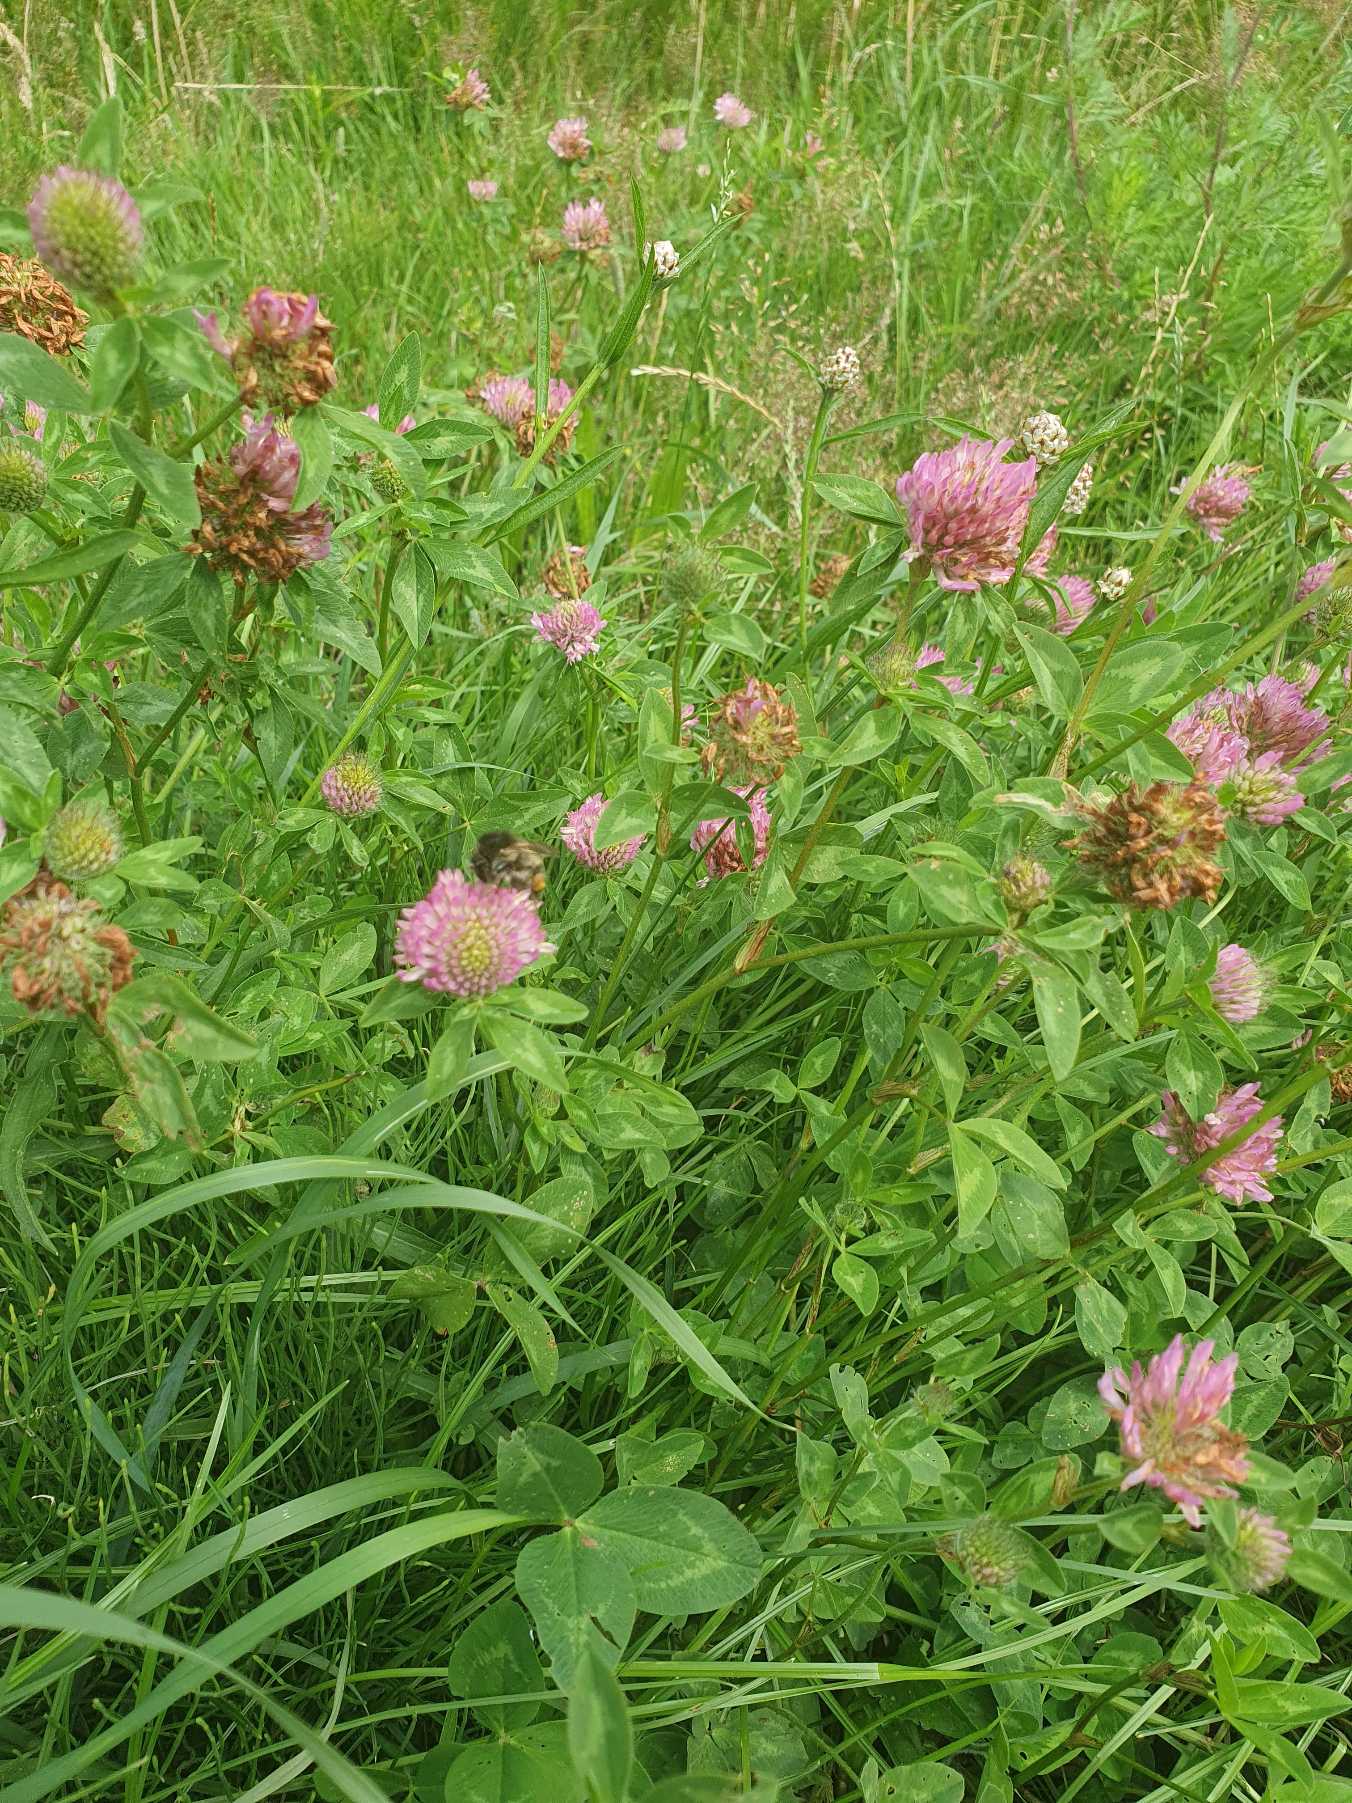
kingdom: Plantae
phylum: Tracheophyta
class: Magnoliopsida
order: Fabales
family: Fabaceae
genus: Trifolium
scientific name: Trifolium pratense
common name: Rød-kløver
